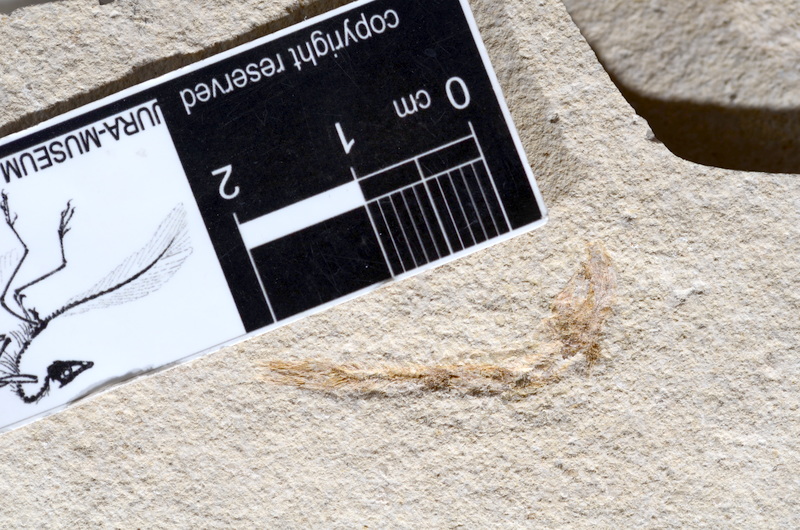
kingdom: Animalia
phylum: Chordata
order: Salmoniformes
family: Orthogonikleithridae
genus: Leptolepides
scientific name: Leptolepides sprattiformis
